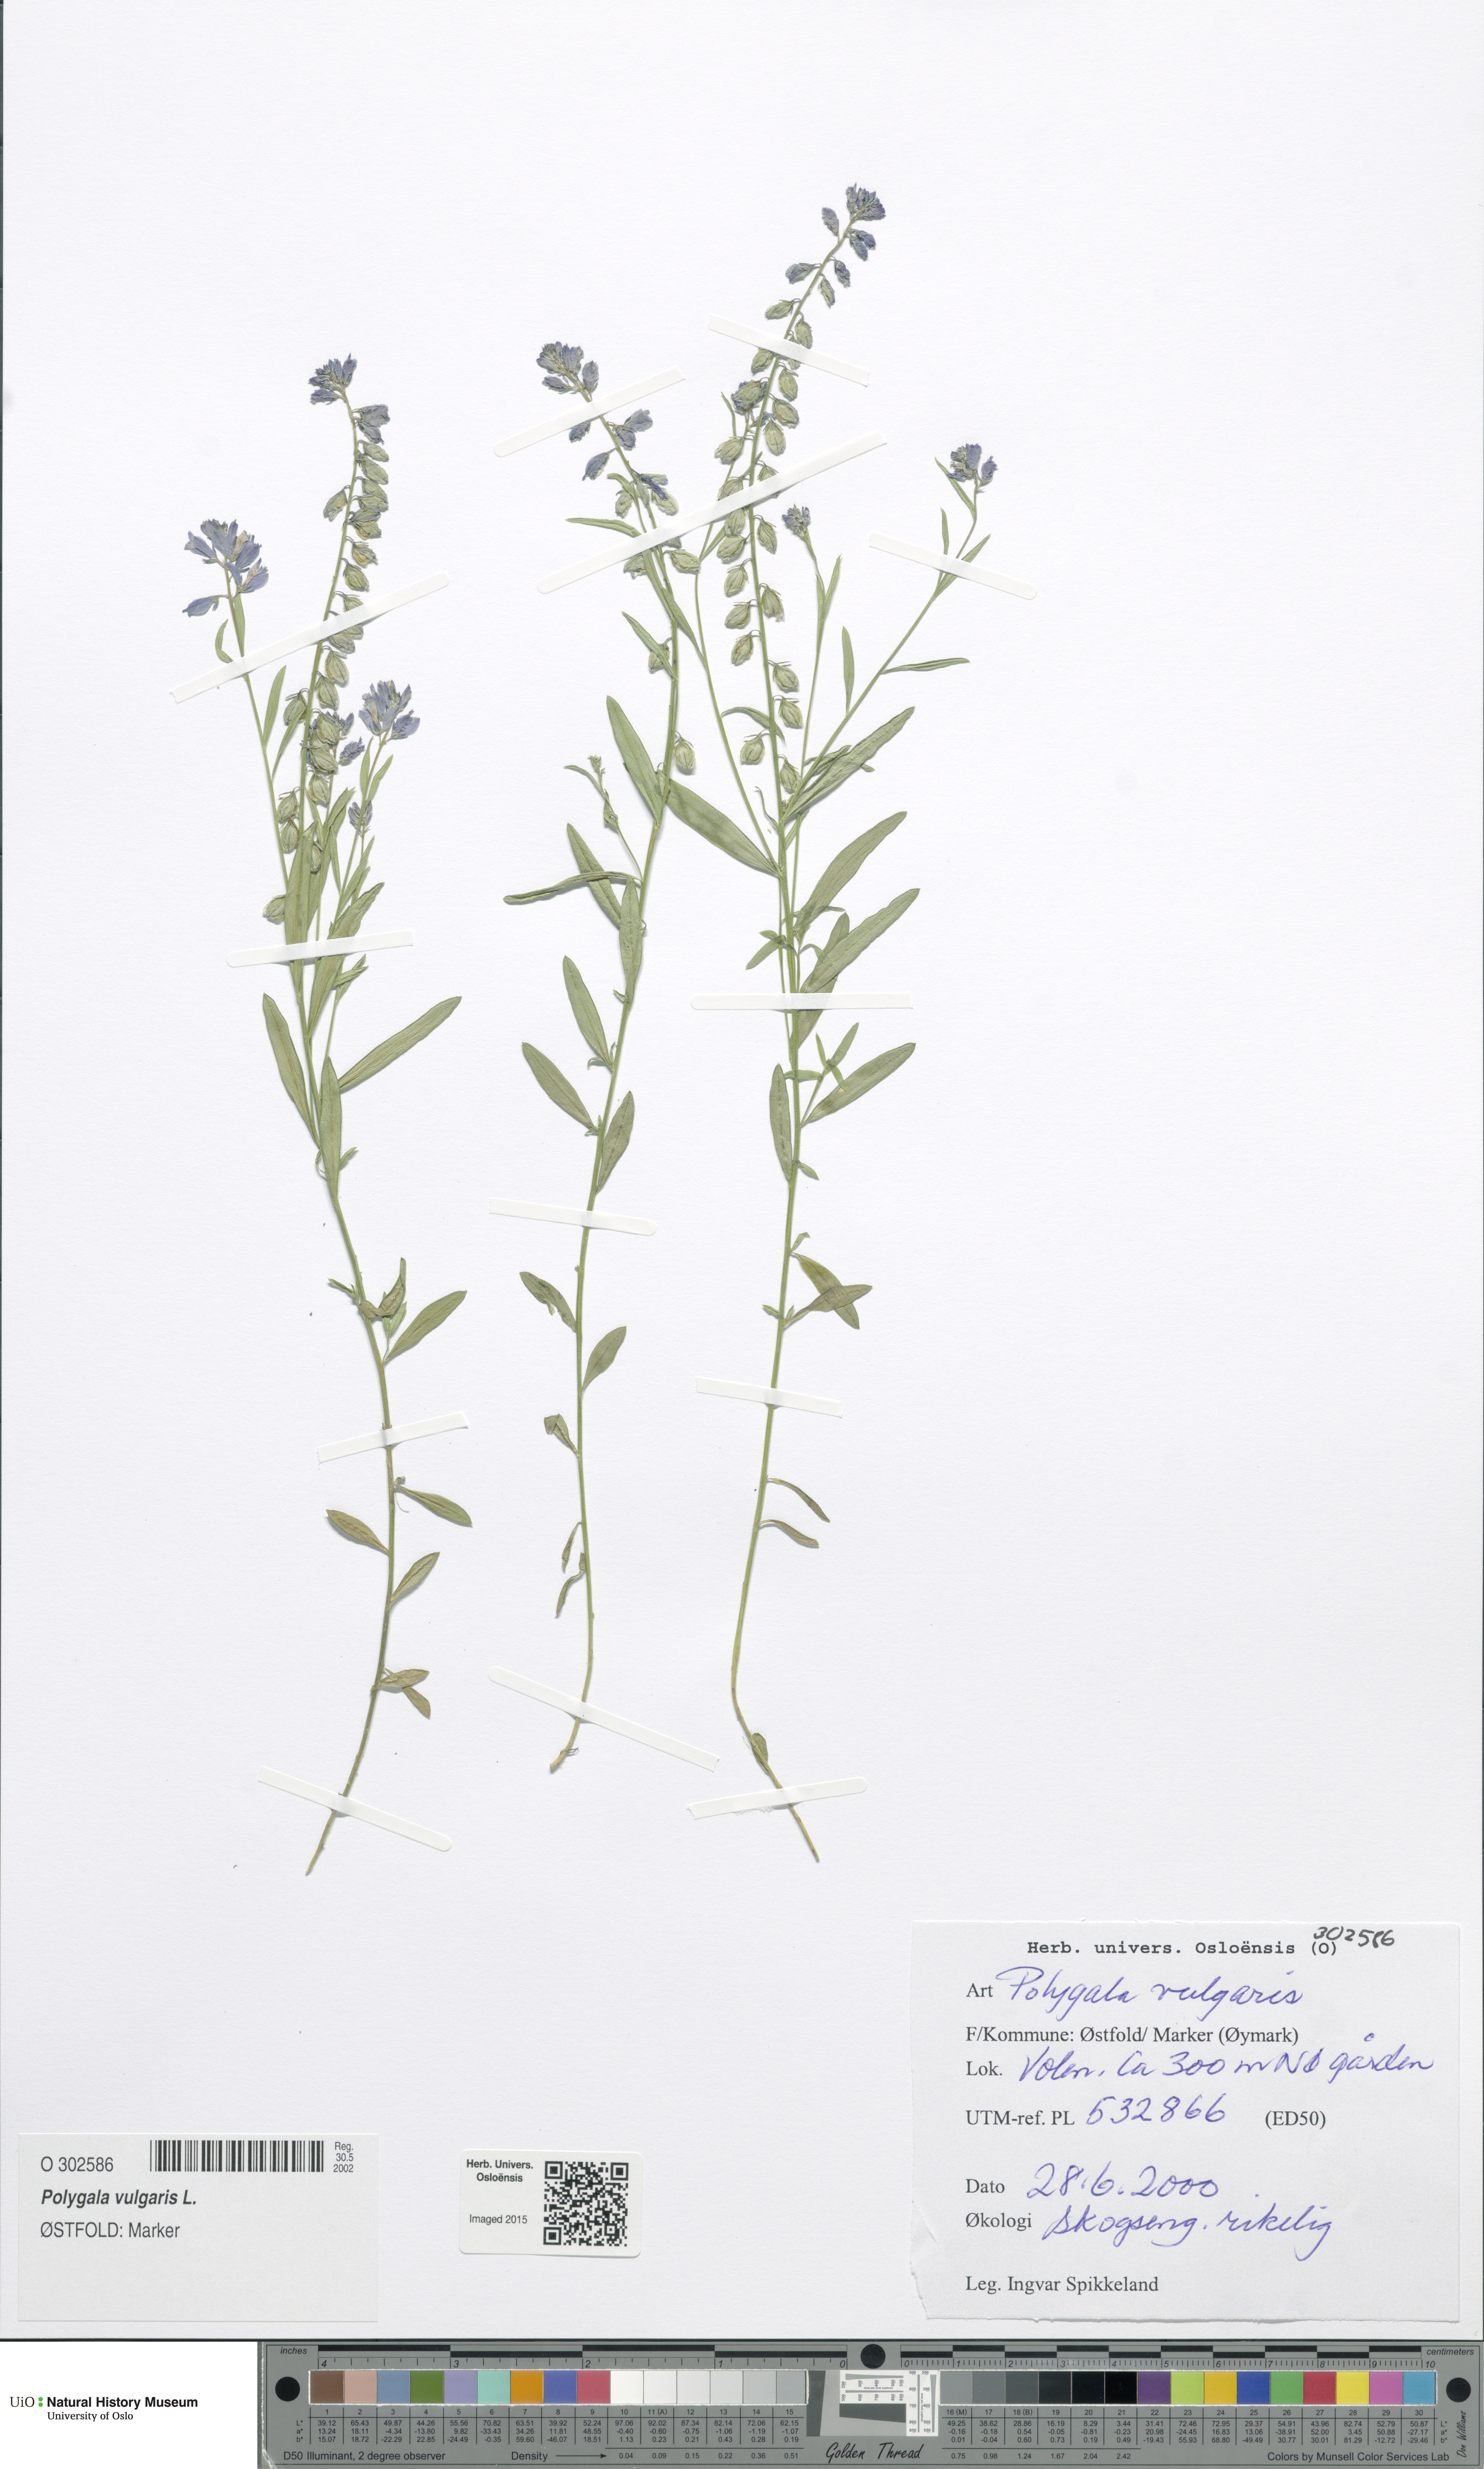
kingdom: Plantae
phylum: Tracheophyta
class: Magnoliopsida
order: Fabales
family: Polygalaceae
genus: Polygala
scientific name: Polygala vulgaris
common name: Common milkwort
